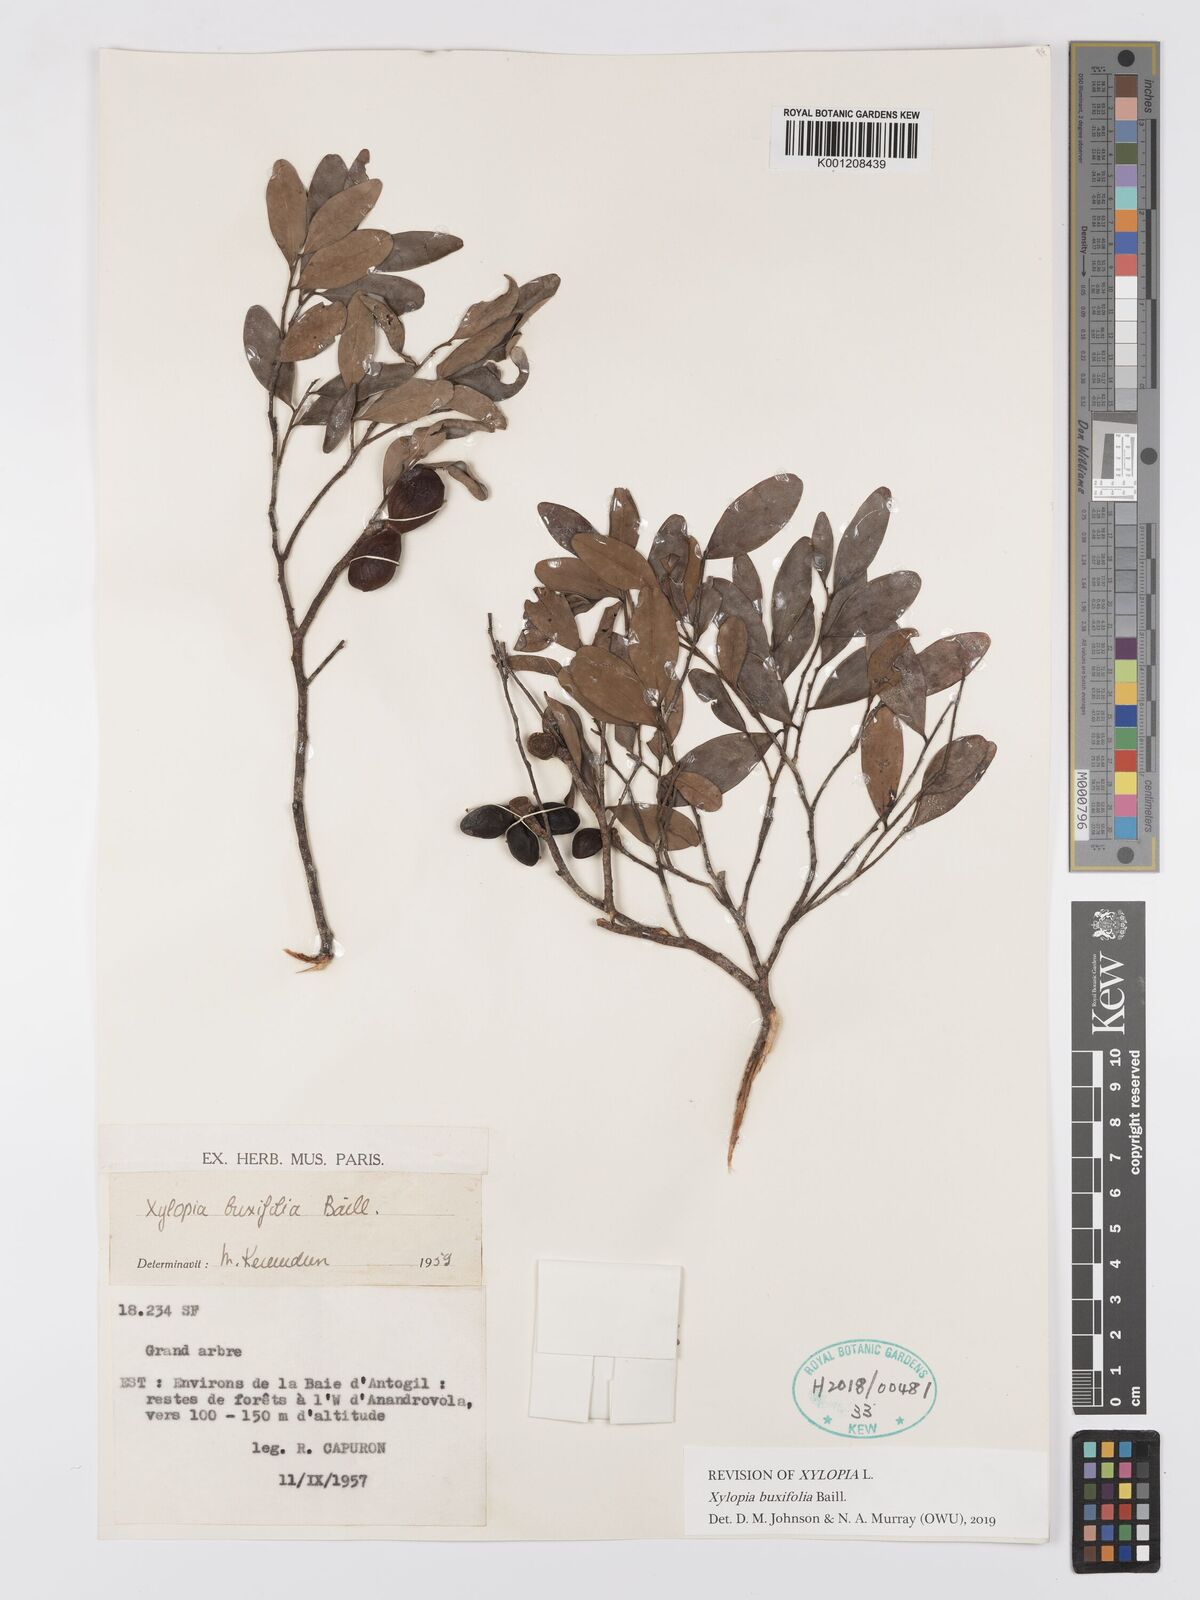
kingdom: Plantae
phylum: Tracheophyta
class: Magnoliopsida
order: Magnoliales
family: Annonaceae
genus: Xylopia
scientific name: Xylopia buxifolia
